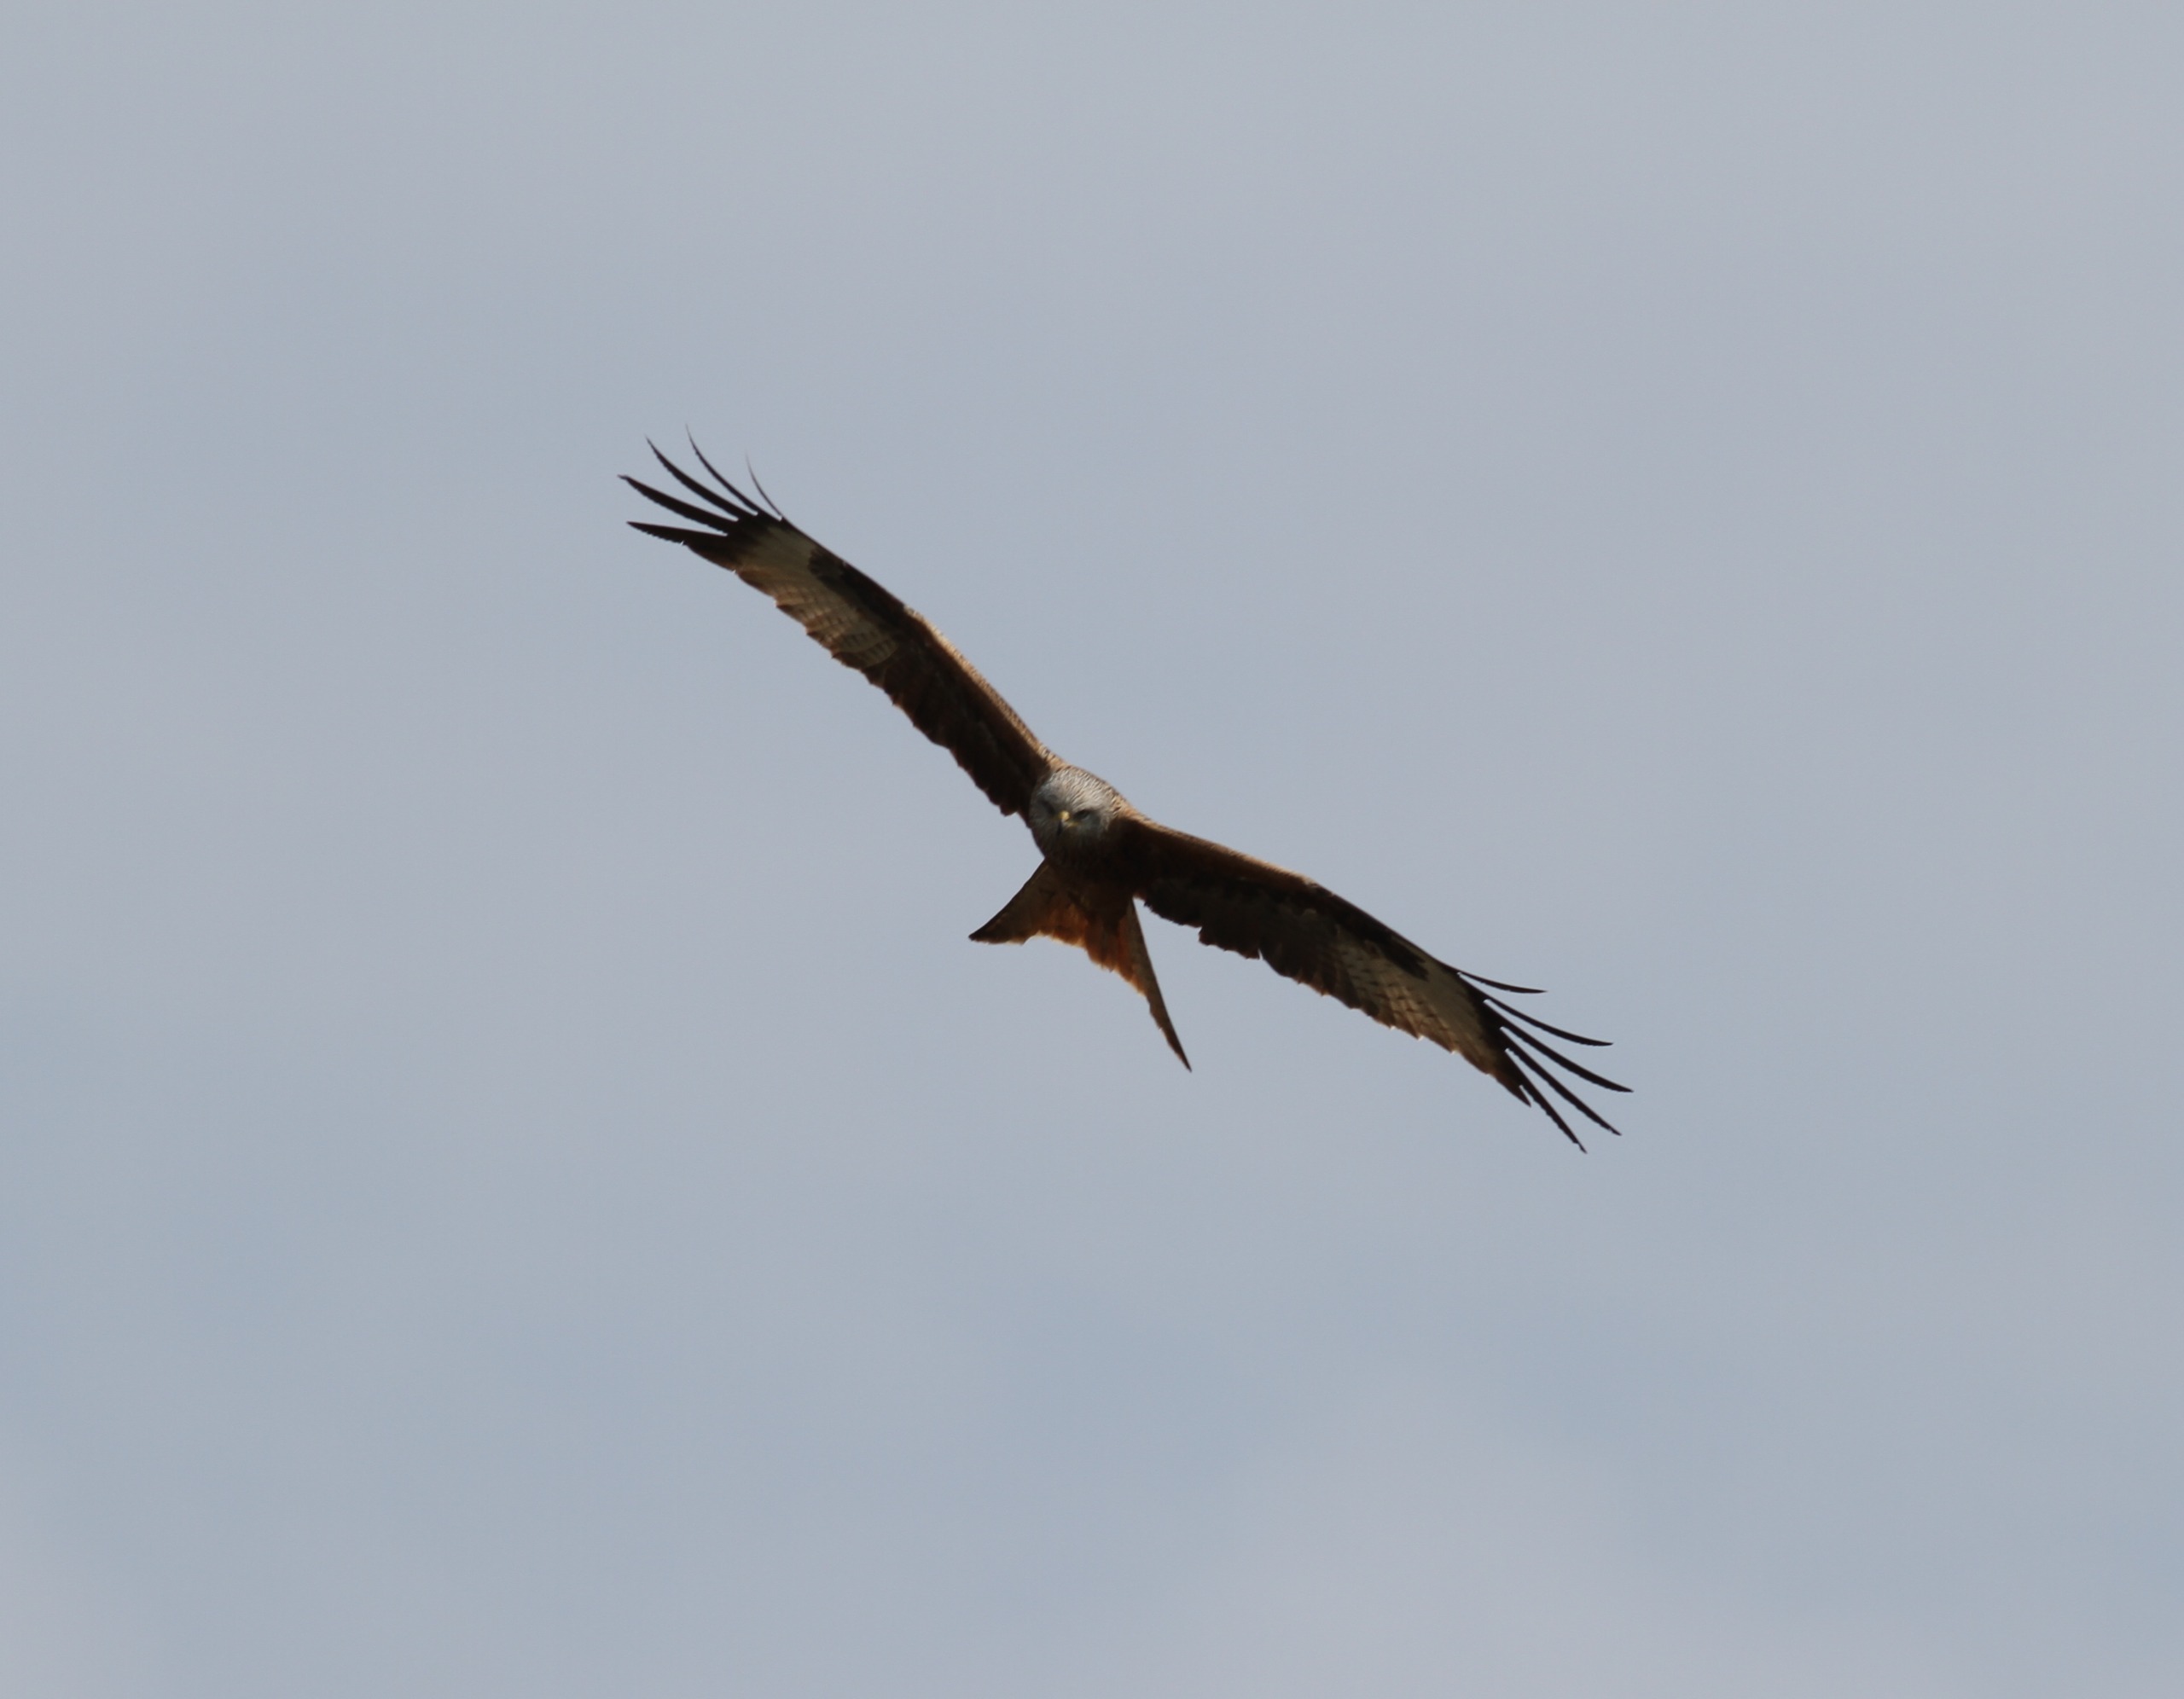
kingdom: Animalia
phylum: Chordata
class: Aves
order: Accipitriformes
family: Accipitridae
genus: Milvus
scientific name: Milvus milvus
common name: Rød glente
